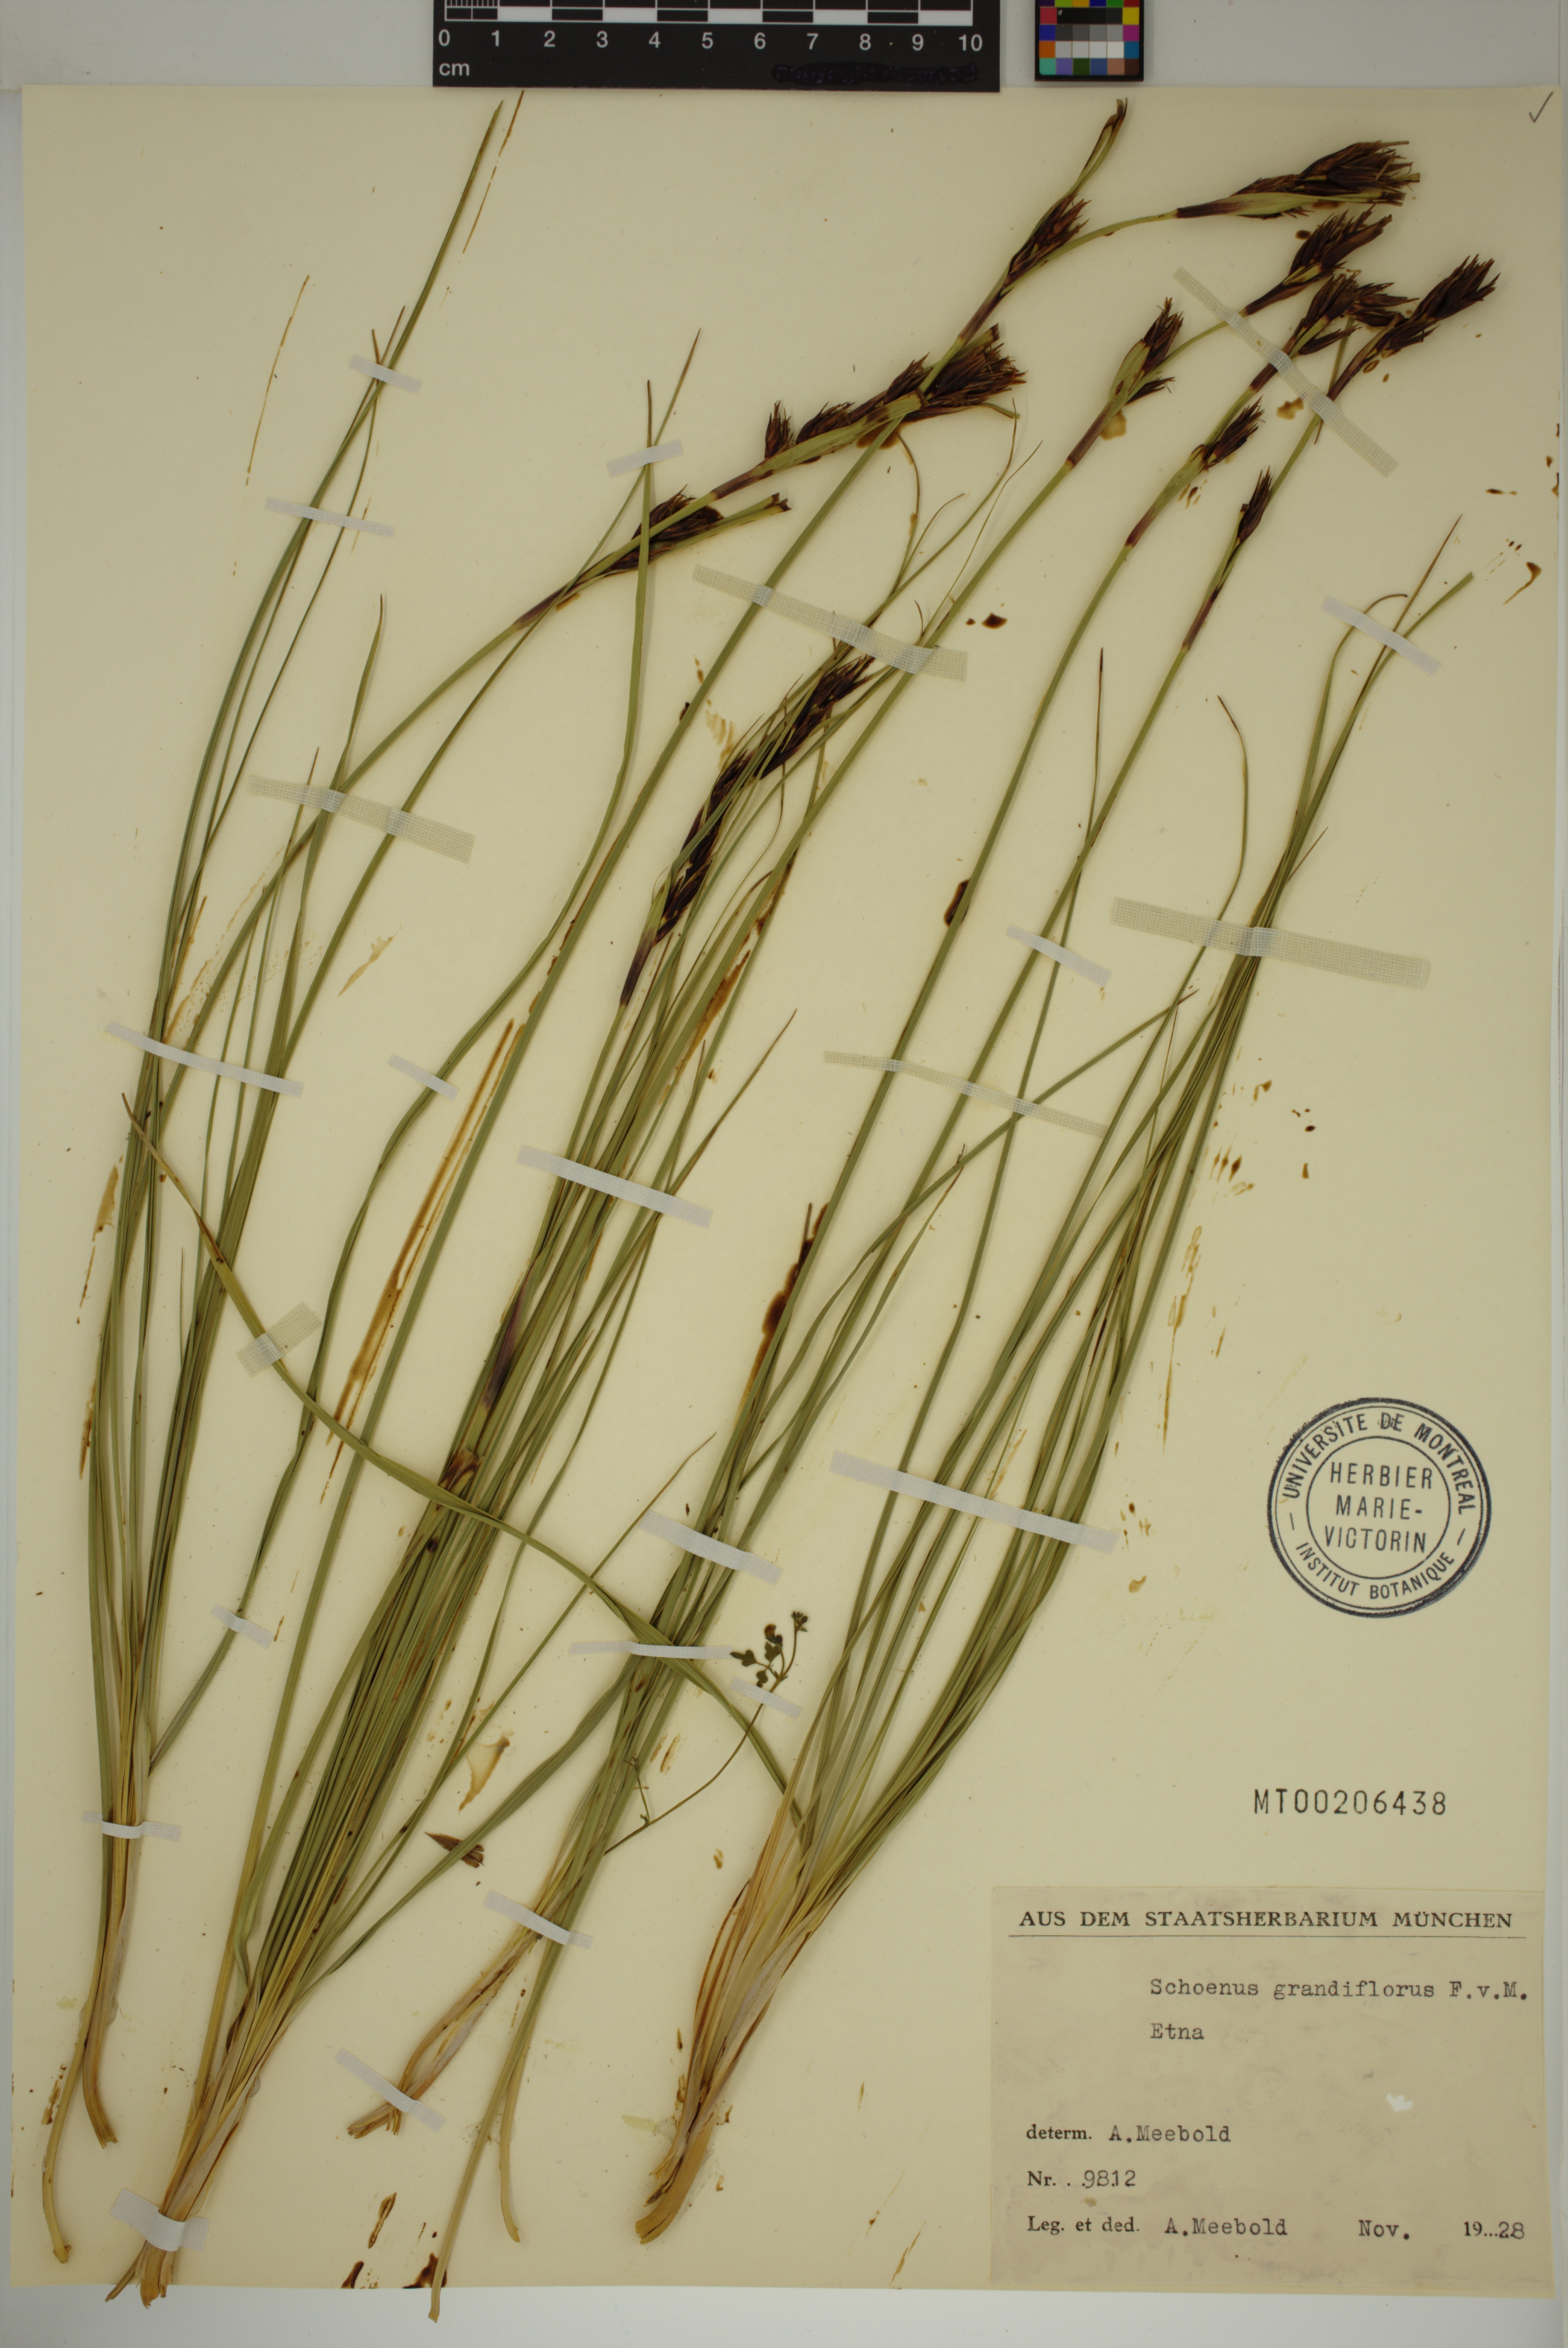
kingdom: Plantae
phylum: Tracheophyta
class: Liliopsida
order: Poales
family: Cyperaceae
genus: Schoenus
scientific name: Schoenus grandiflorus
